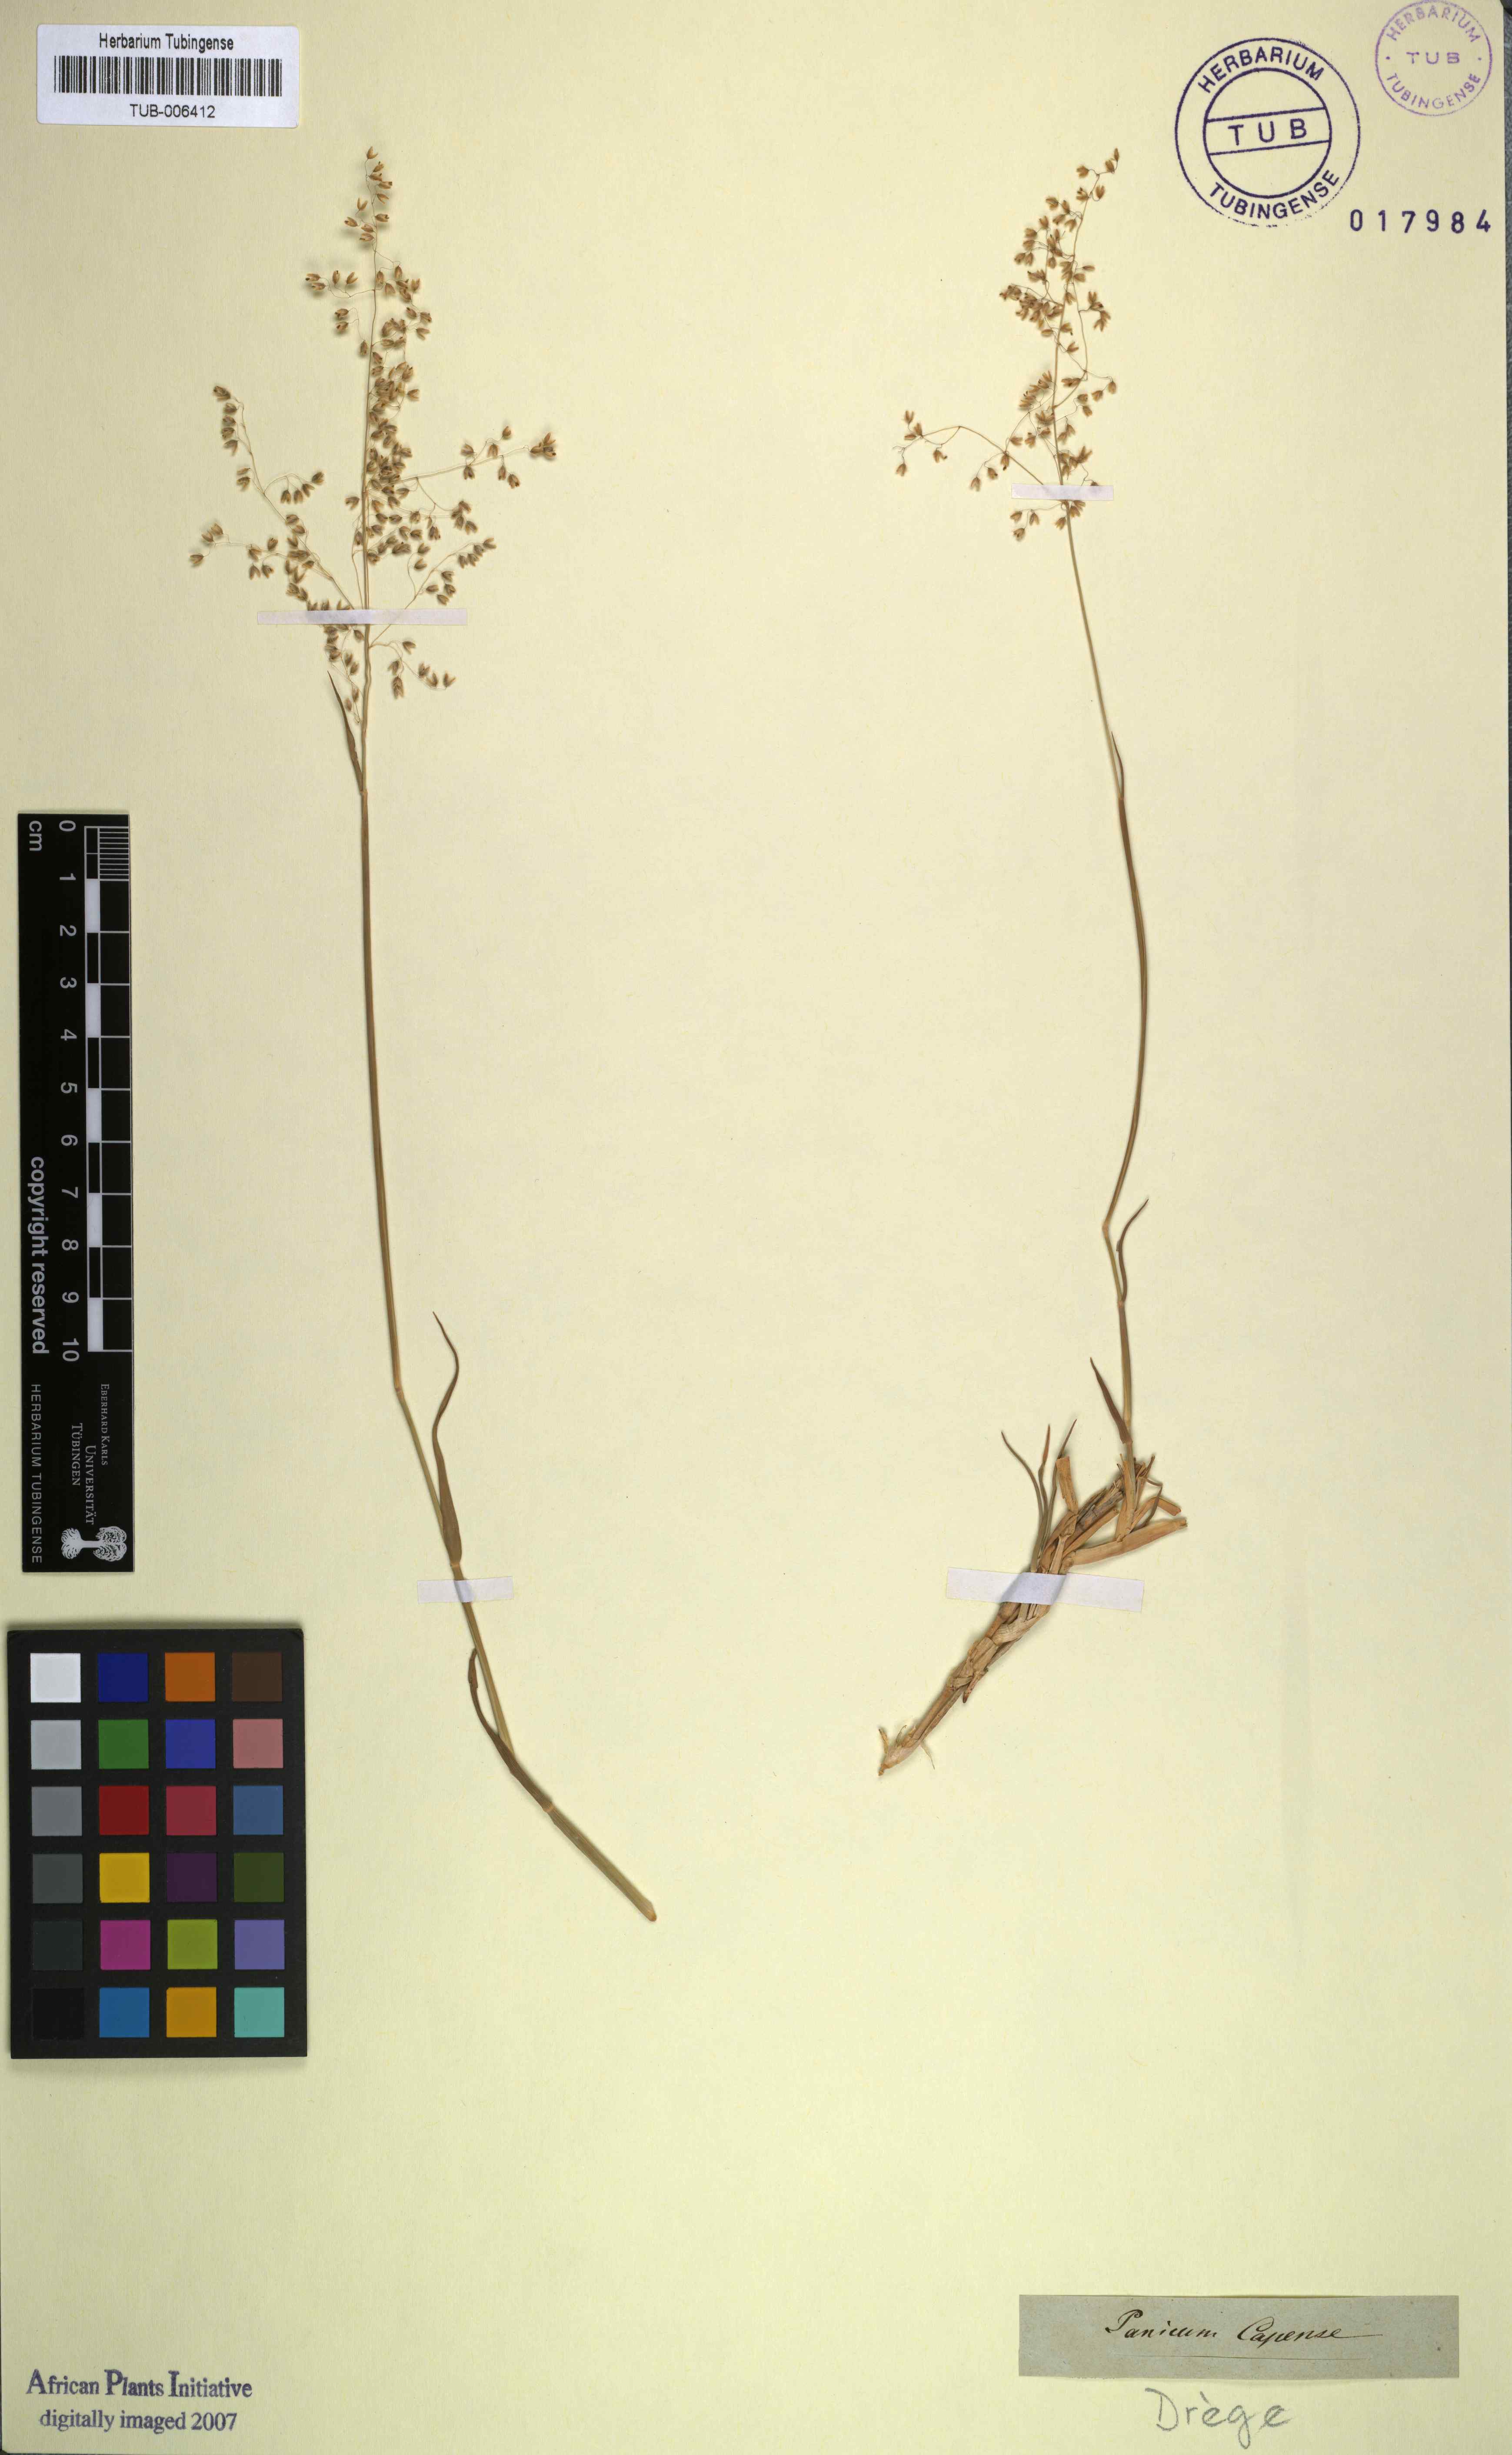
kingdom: Plantae
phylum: Tracheophyta
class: Liliopsida
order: Poales
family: Poaceae
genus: Tricholaena
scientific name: Tricholaena capensis
